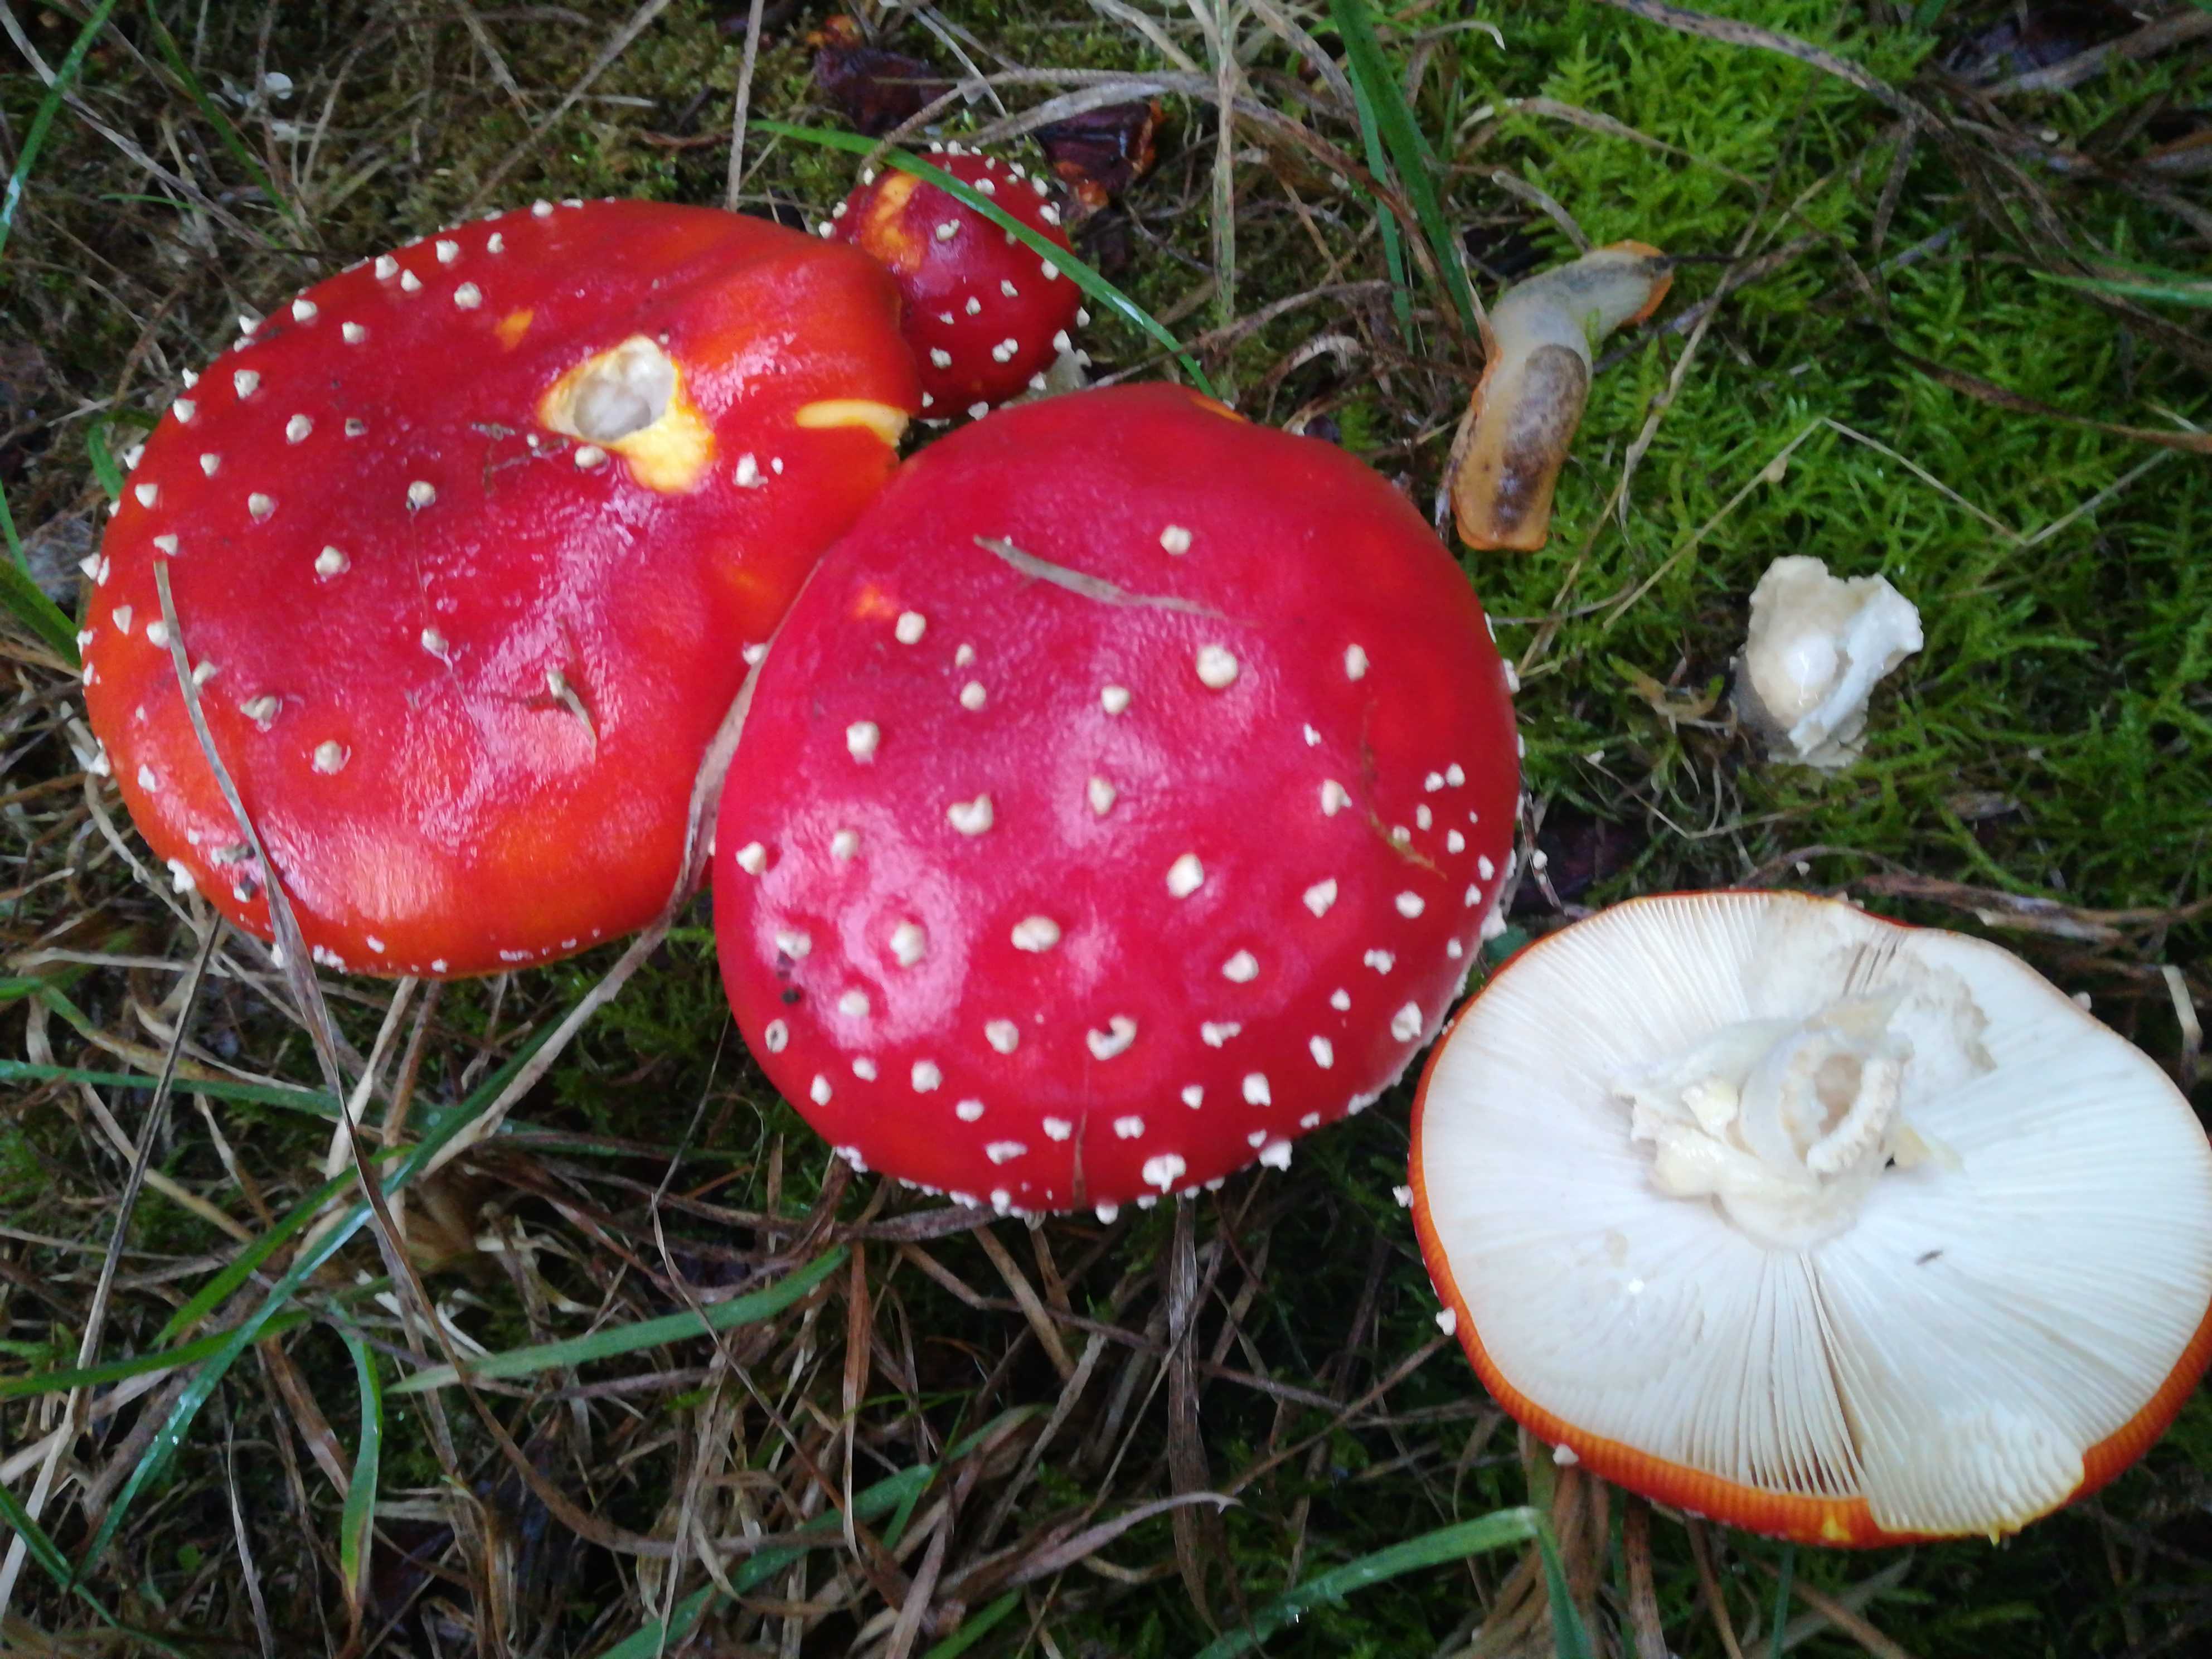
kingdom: Fungi
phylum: Basidiomycota
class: Agaricomycetes
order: Agaricales
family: Amanitaceae
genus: Amanita
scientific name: Amanita muscaria
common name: rød fluesvamp
